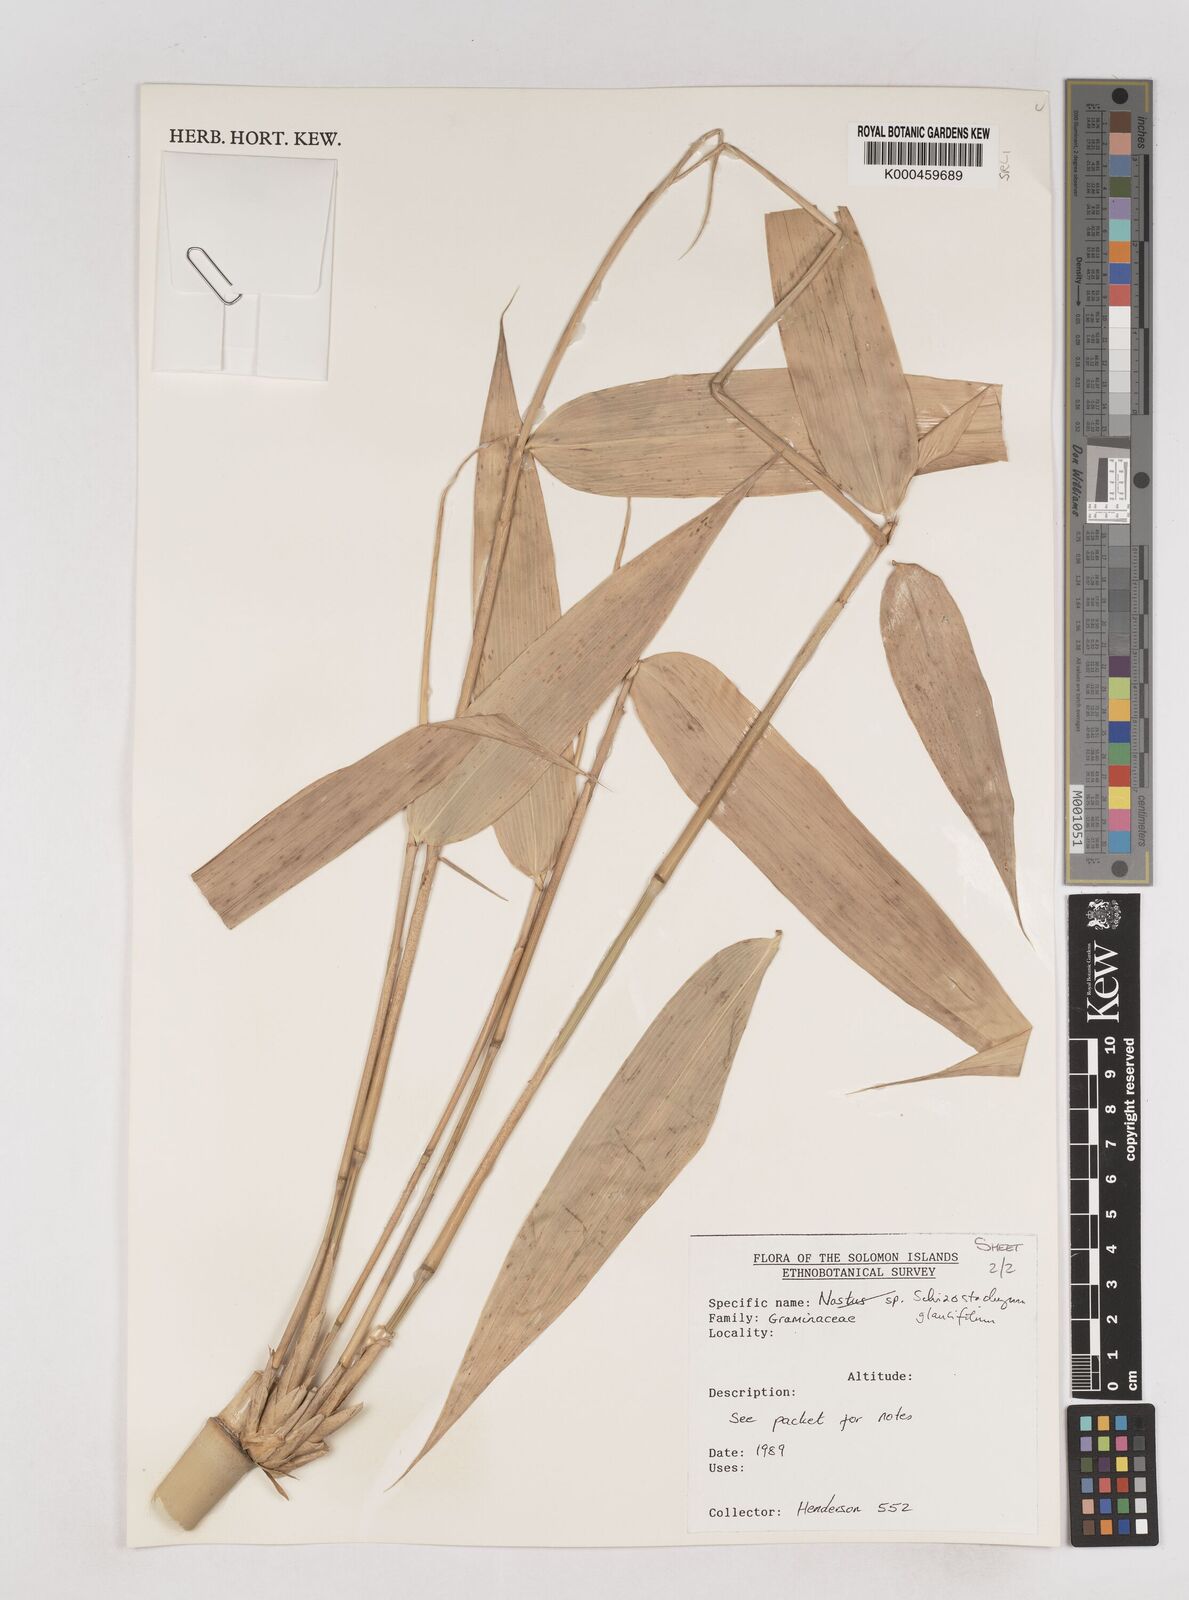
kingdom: Plantae
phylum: Tracheophyta
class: Liliopsida
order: Poales
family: Poaceae
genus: Schizostachyum
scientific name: Schizostachyum glaucifolium
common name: Polynesian 'ohe
